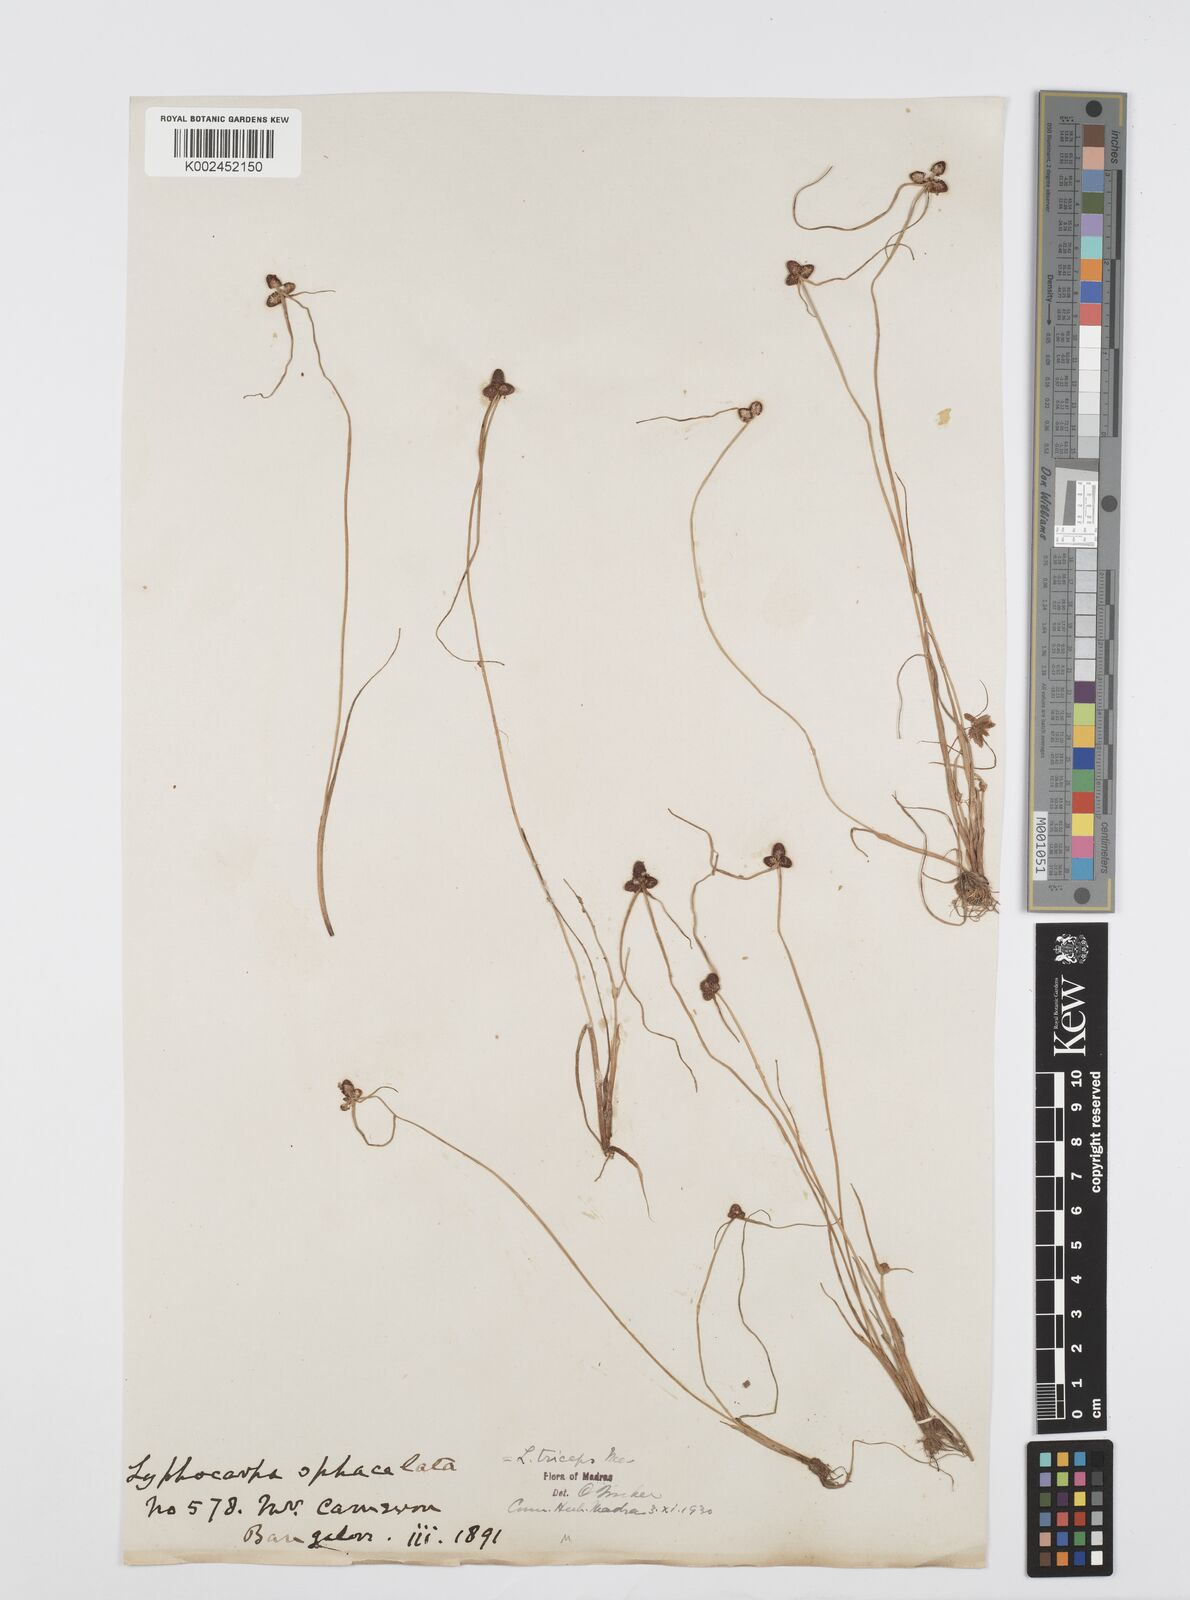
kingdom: Plantae
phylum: Tracheophyta
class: Liliopsida
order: Poales
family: Cyperaceae
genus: Cyperus
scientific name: Cyperus sphacelatus
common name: Roadside flatsedge
